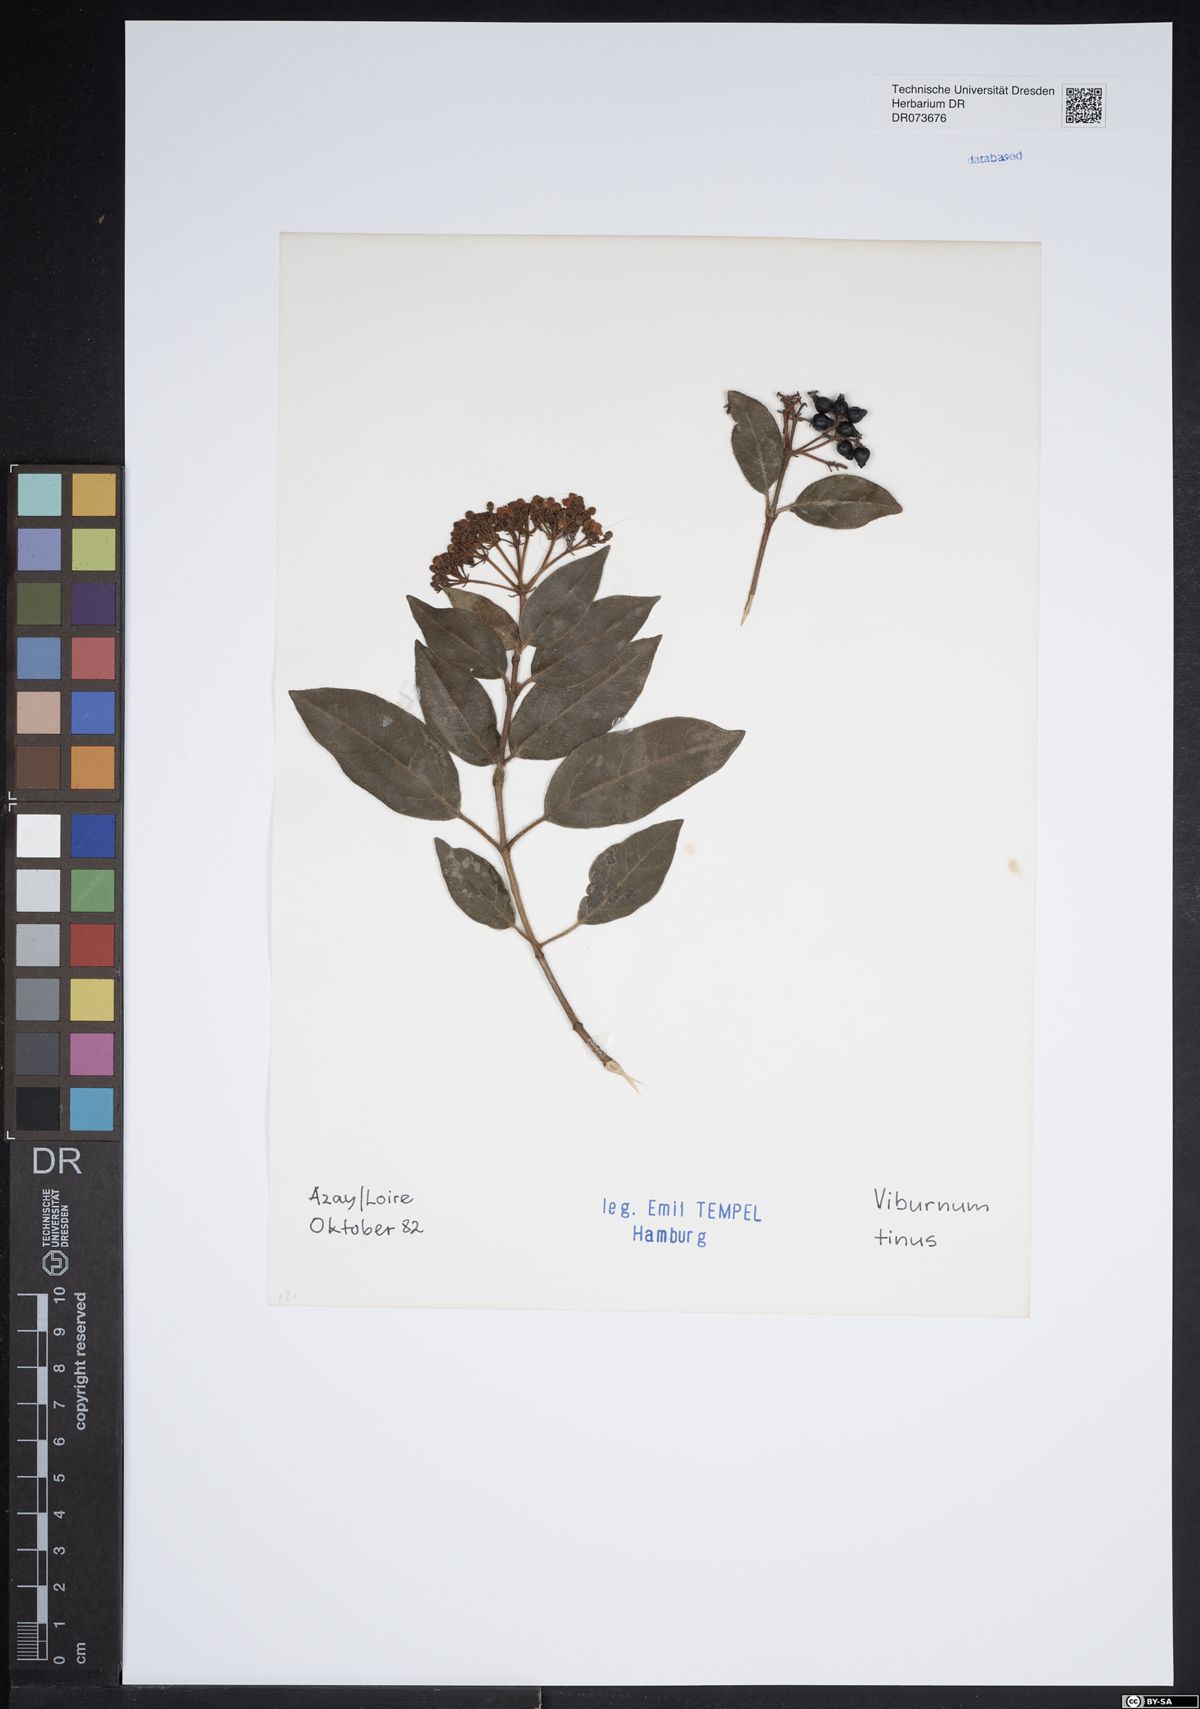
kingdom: Plantae
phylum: Tracheophyta
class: Magnoliopsida
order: Dipsacales
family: Viburnaceae
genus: Viburnum
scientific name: Viburnum tinus
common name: Laurustinus
